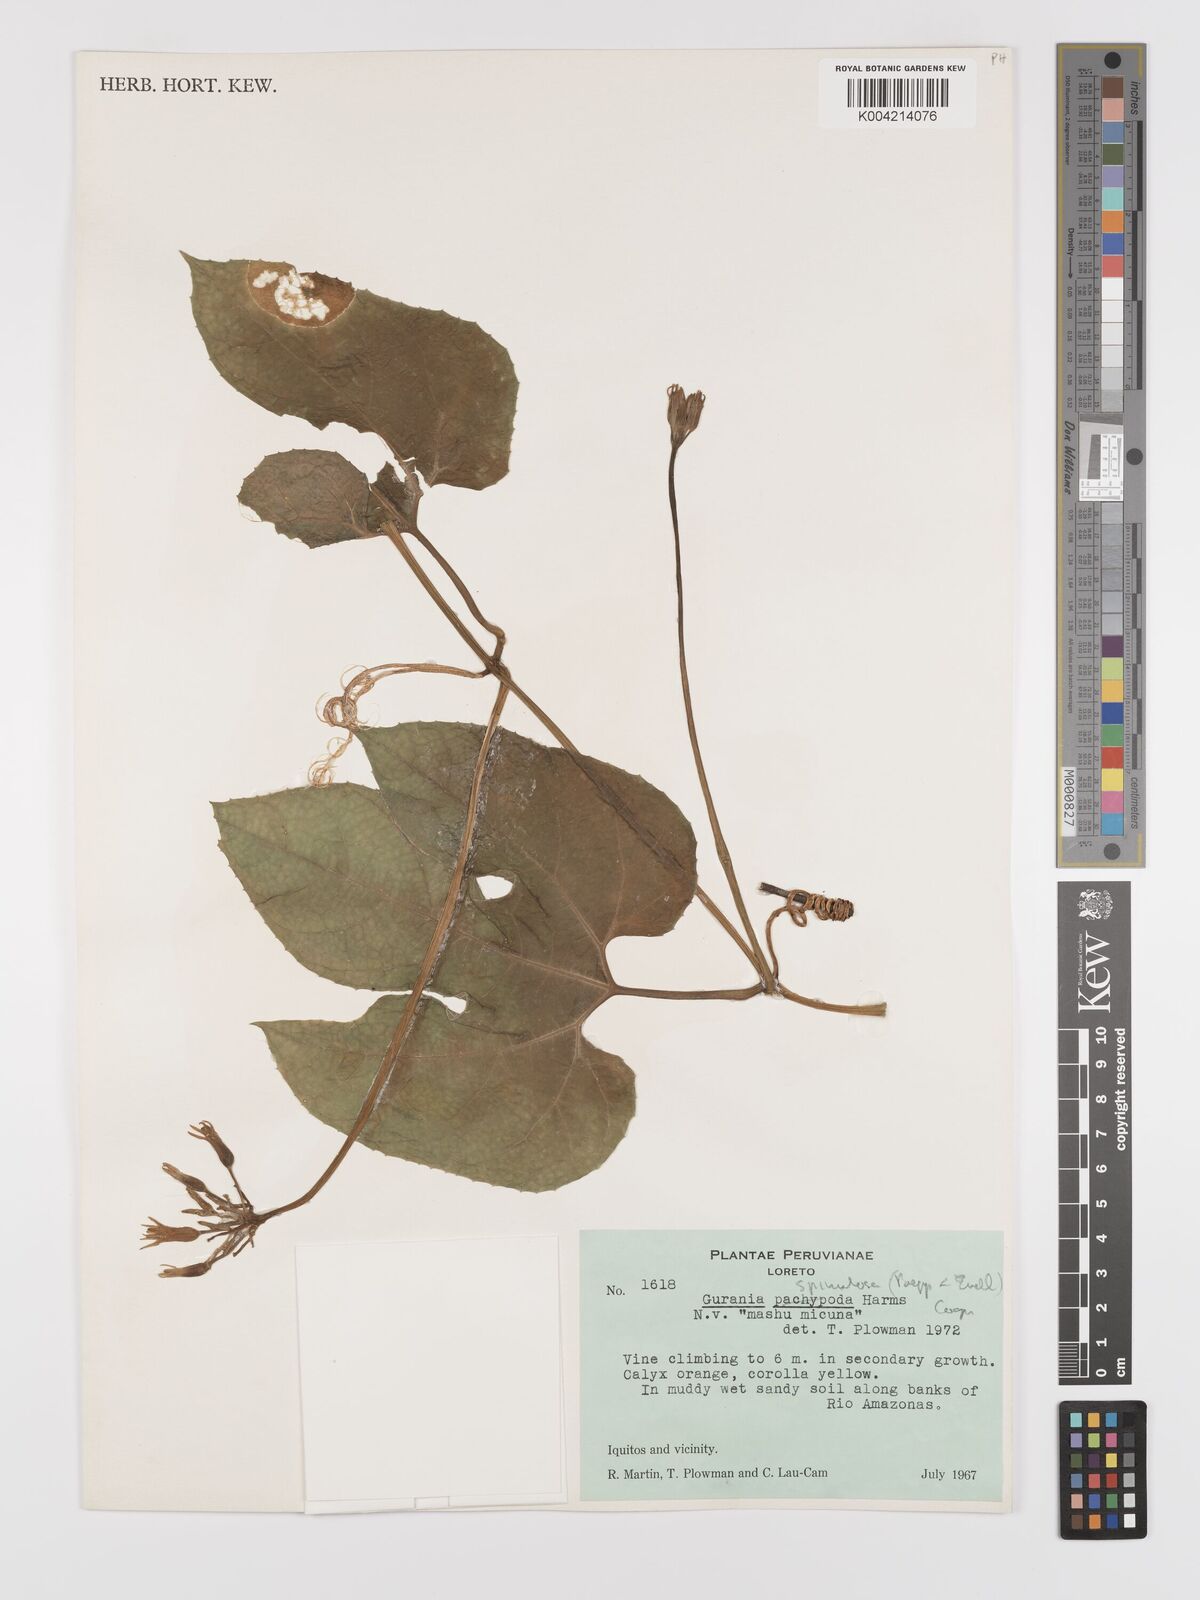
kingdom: Plantae
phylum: Tracheophyta
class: Magnoliopsida
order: Cucurbitales
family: Cucurbitaceae
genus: Gurania
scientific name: Gurania lobata
